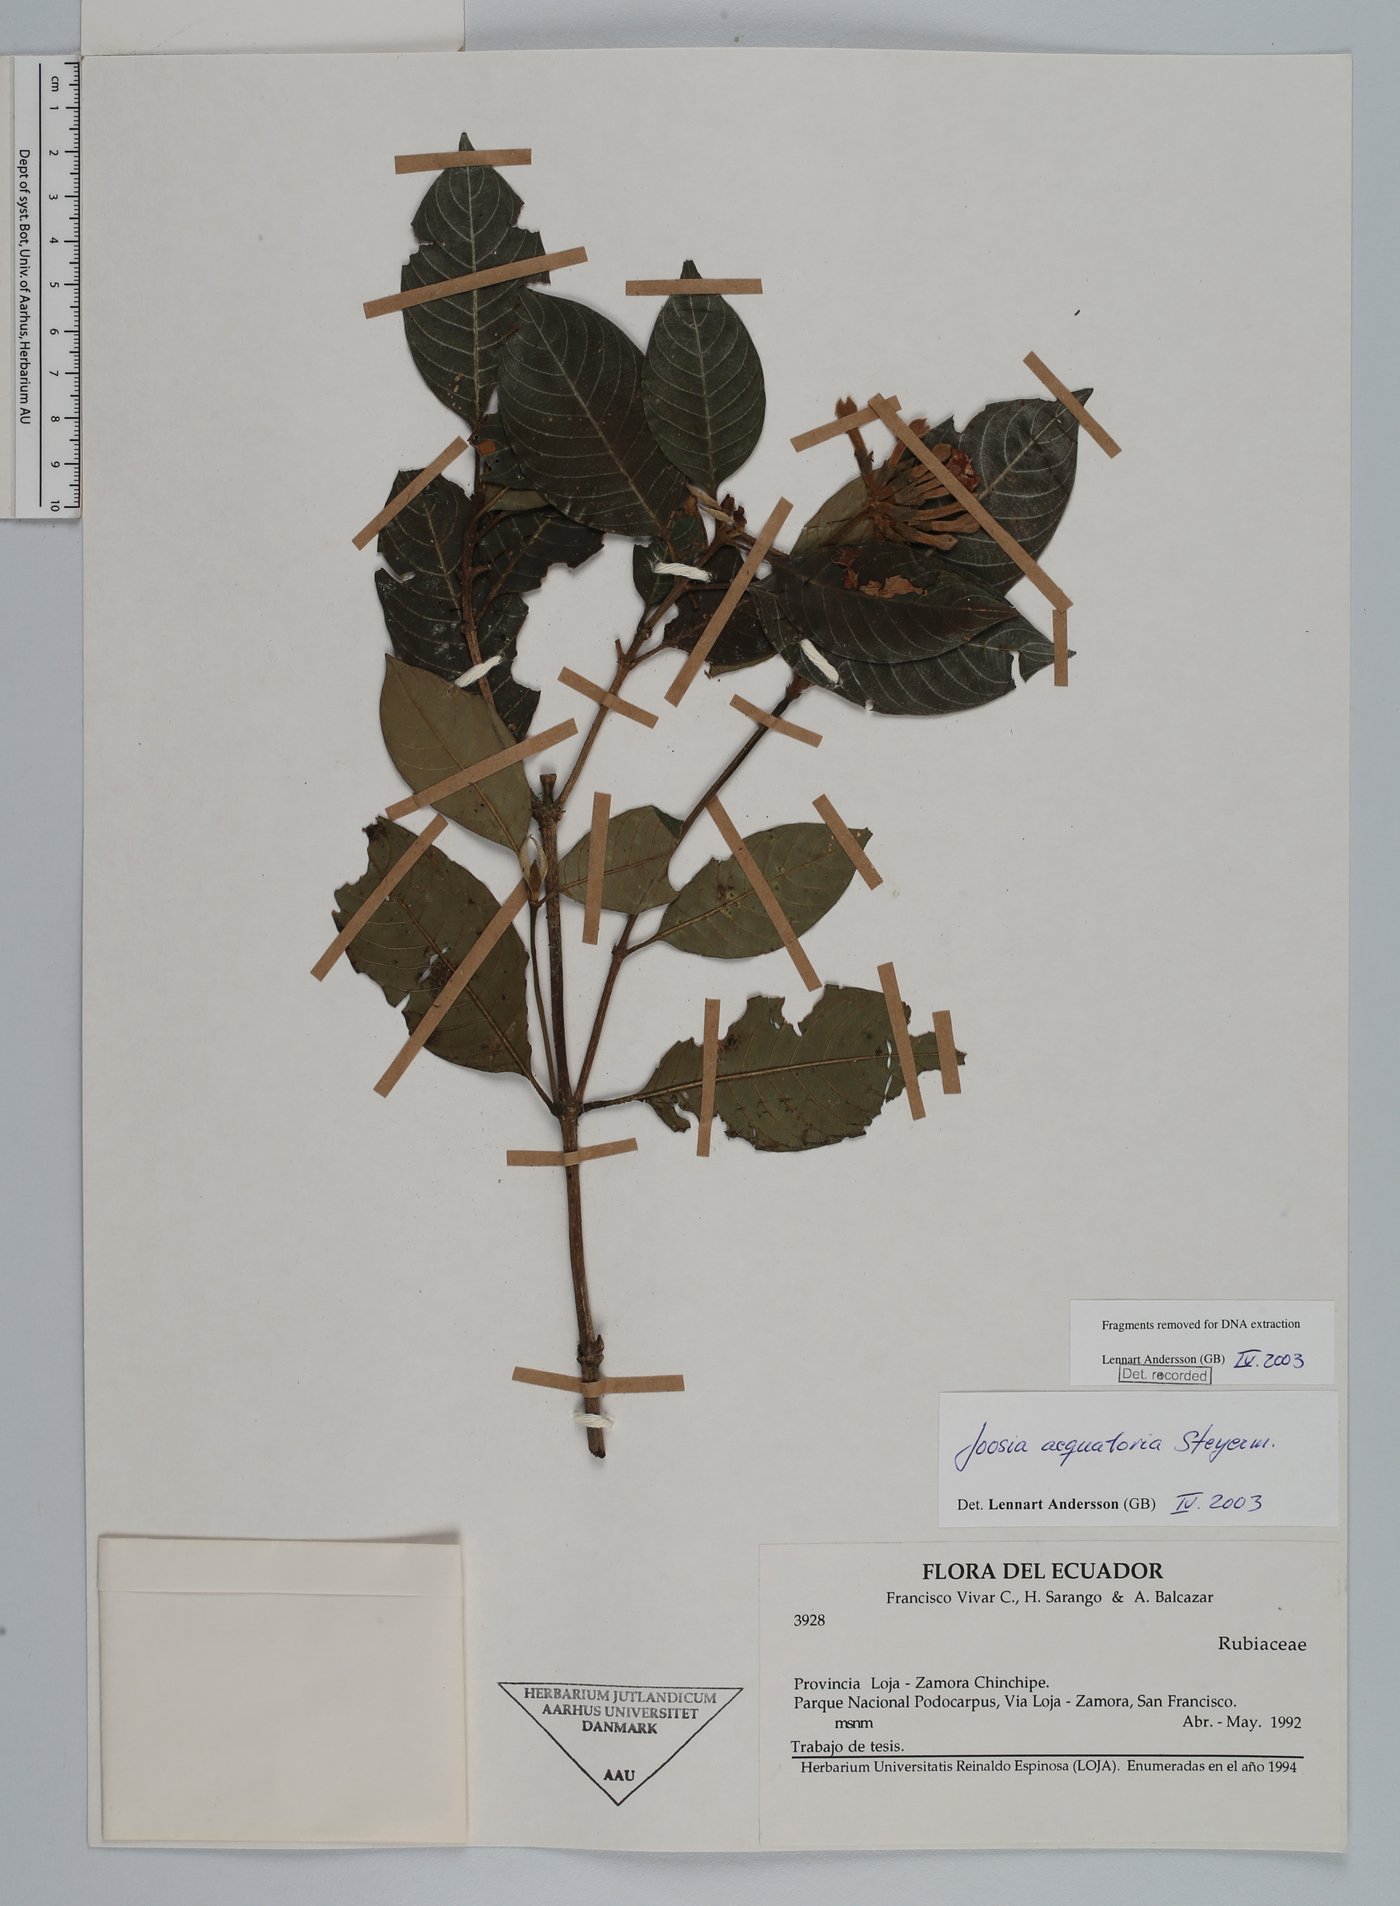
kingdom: Plantae
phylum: Tracheophyta
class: Magnoliopsida
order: Gentianales
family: Rubiaceae
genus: Joosia
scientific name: Joosia aequatoria
